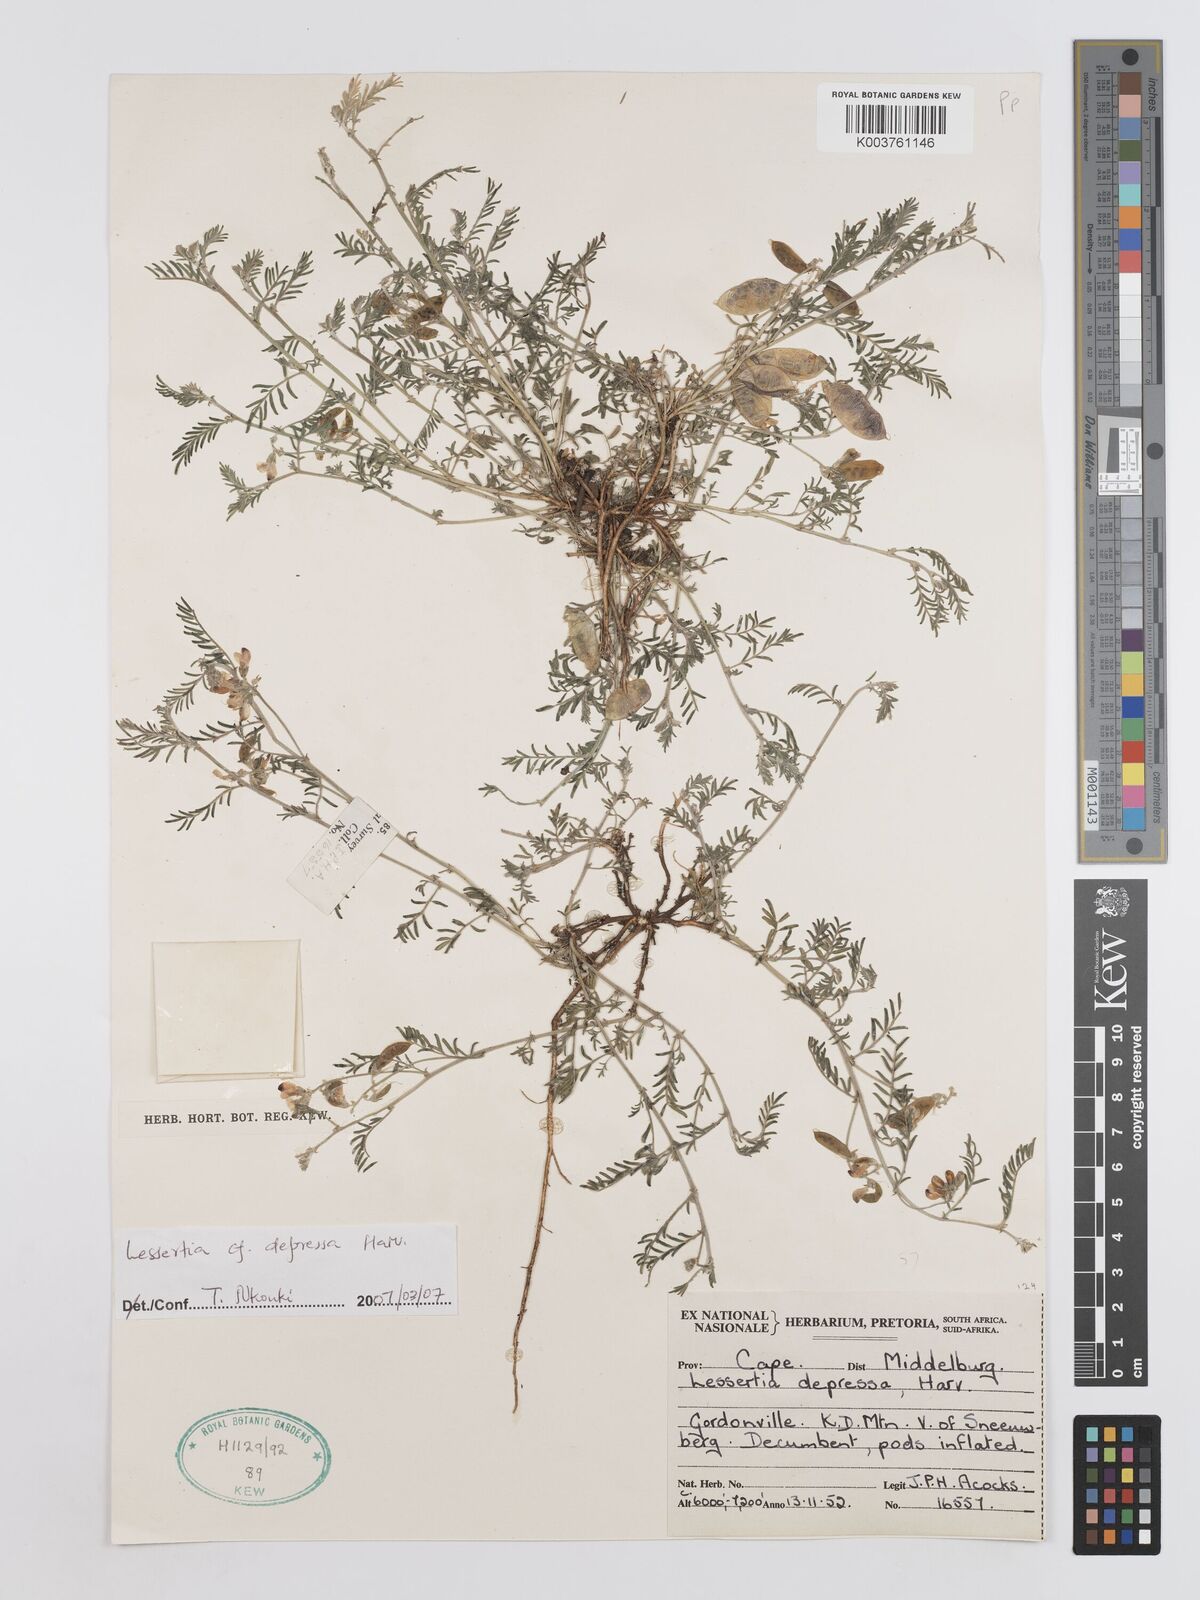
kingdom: Plantae
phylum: Tracheophyta
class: Magnoliopsida
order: Fabales
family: Fabaceae
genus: Lessertia
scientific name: Lessertia depressa
